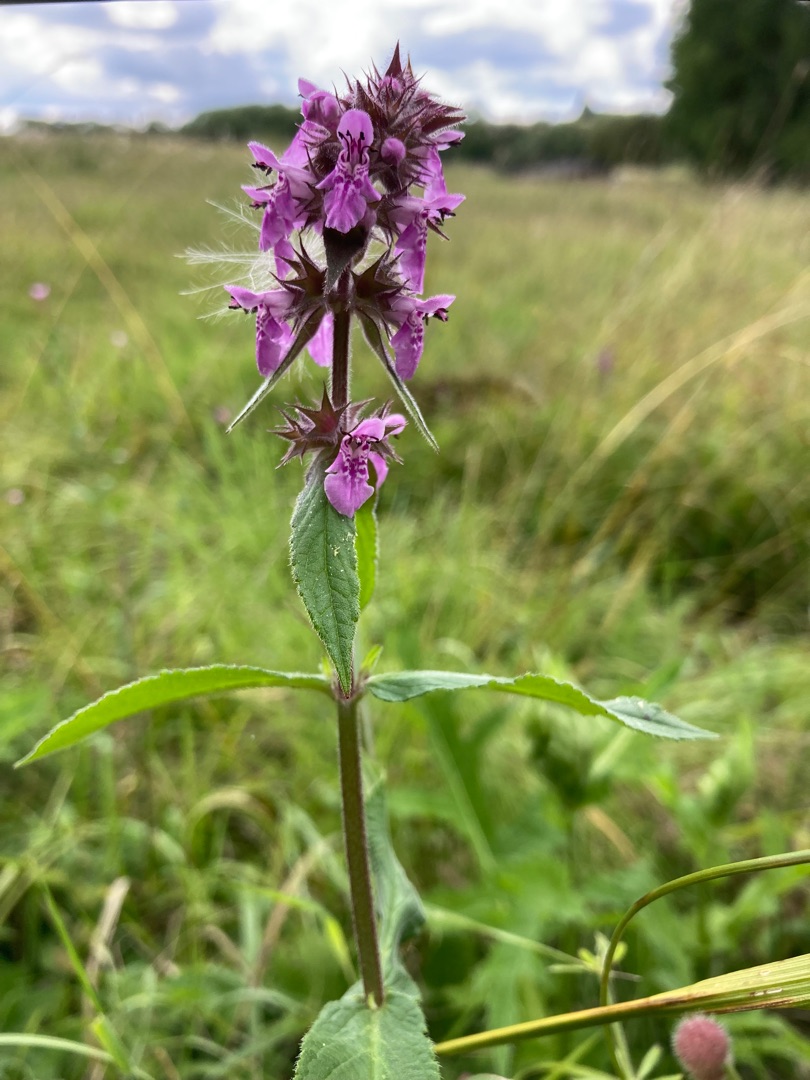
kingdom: Plantae
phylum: Tracheophyta
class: Magnoliopsida
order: Lamiales
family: Lamiaceae
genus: Stachys
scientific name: Stachys palustris
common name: Kær-galtetand
